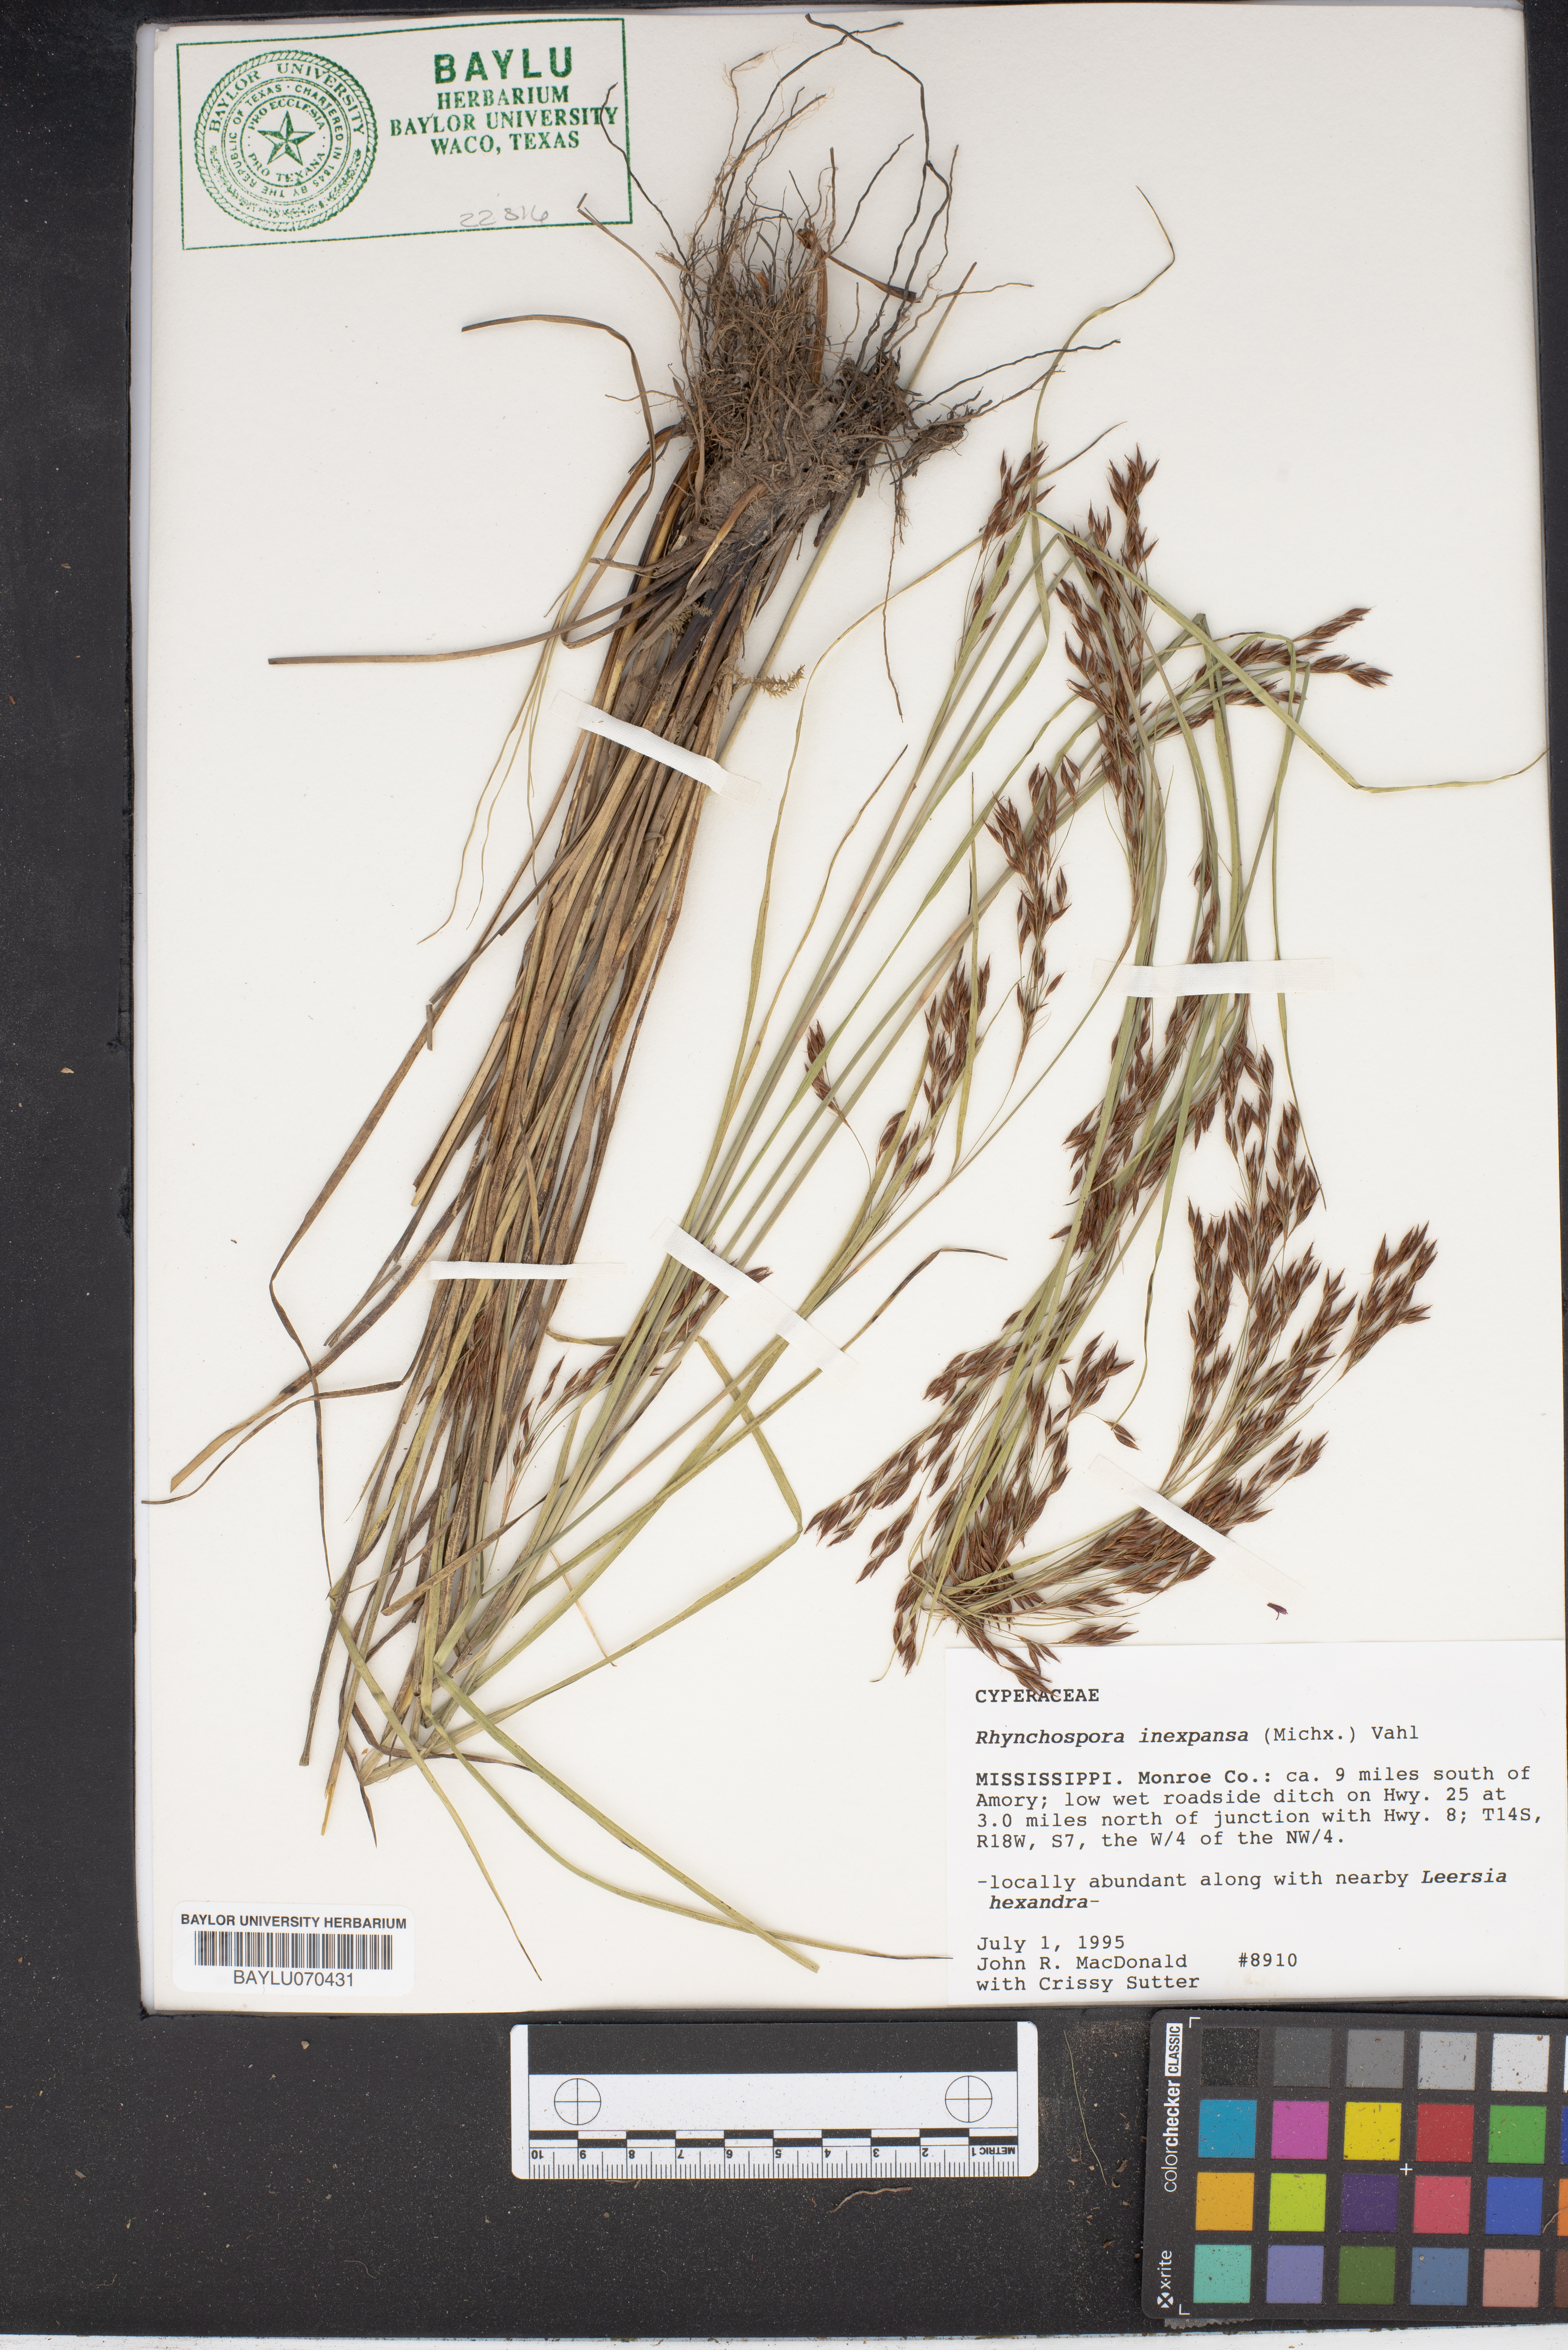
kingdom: Plantae
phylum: Tracheophyta
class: Liliopsida
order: Poales
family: Cyperaceae
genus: Rhynchospora
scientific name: Rhynchospora inexpansa
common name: Nodding beaksedge
